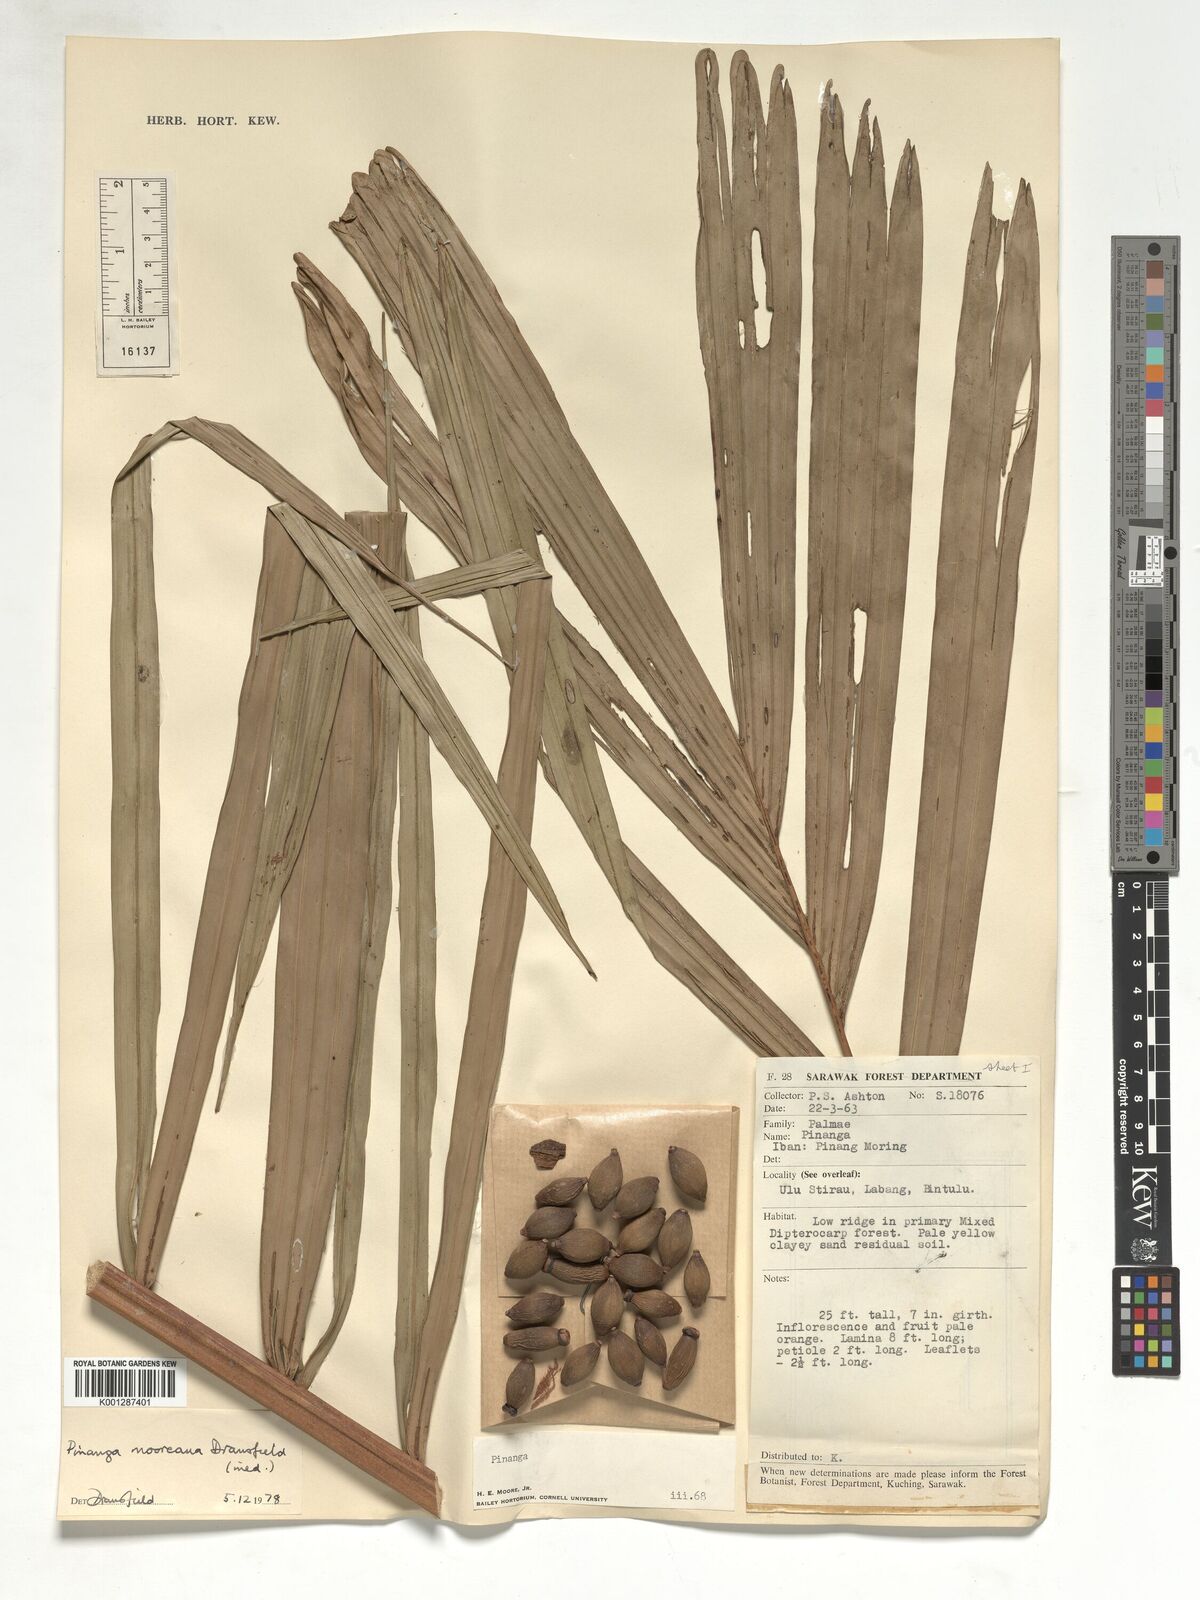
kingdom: Plantae
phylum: Tracheophyta
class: Liliopsida
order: Arecales
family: Arecaceae
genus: Pinanga
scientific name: Pinanga mooreana
